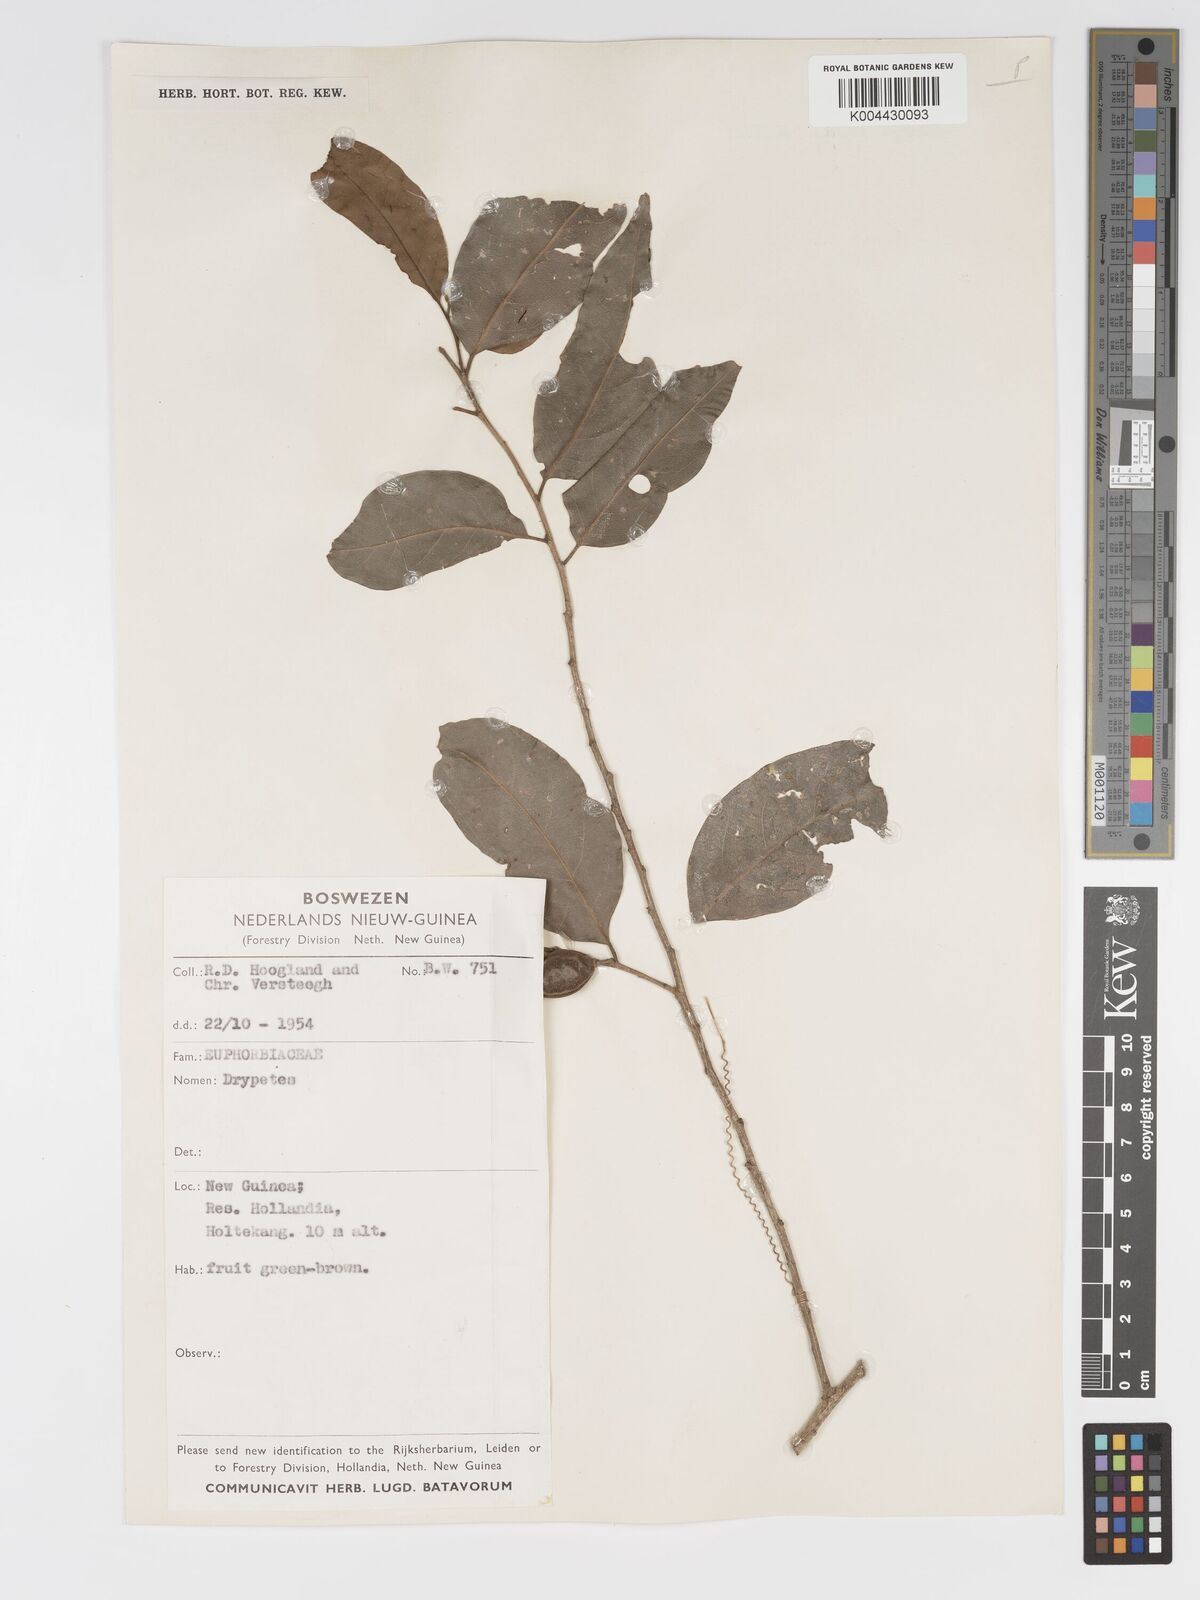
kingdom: Plantae
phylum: Tracheophyta
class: Magnoliopsida
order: Malpighiales
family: Putranjivaceae
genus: Drypetes
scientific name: Drypetes lasiogynoides
